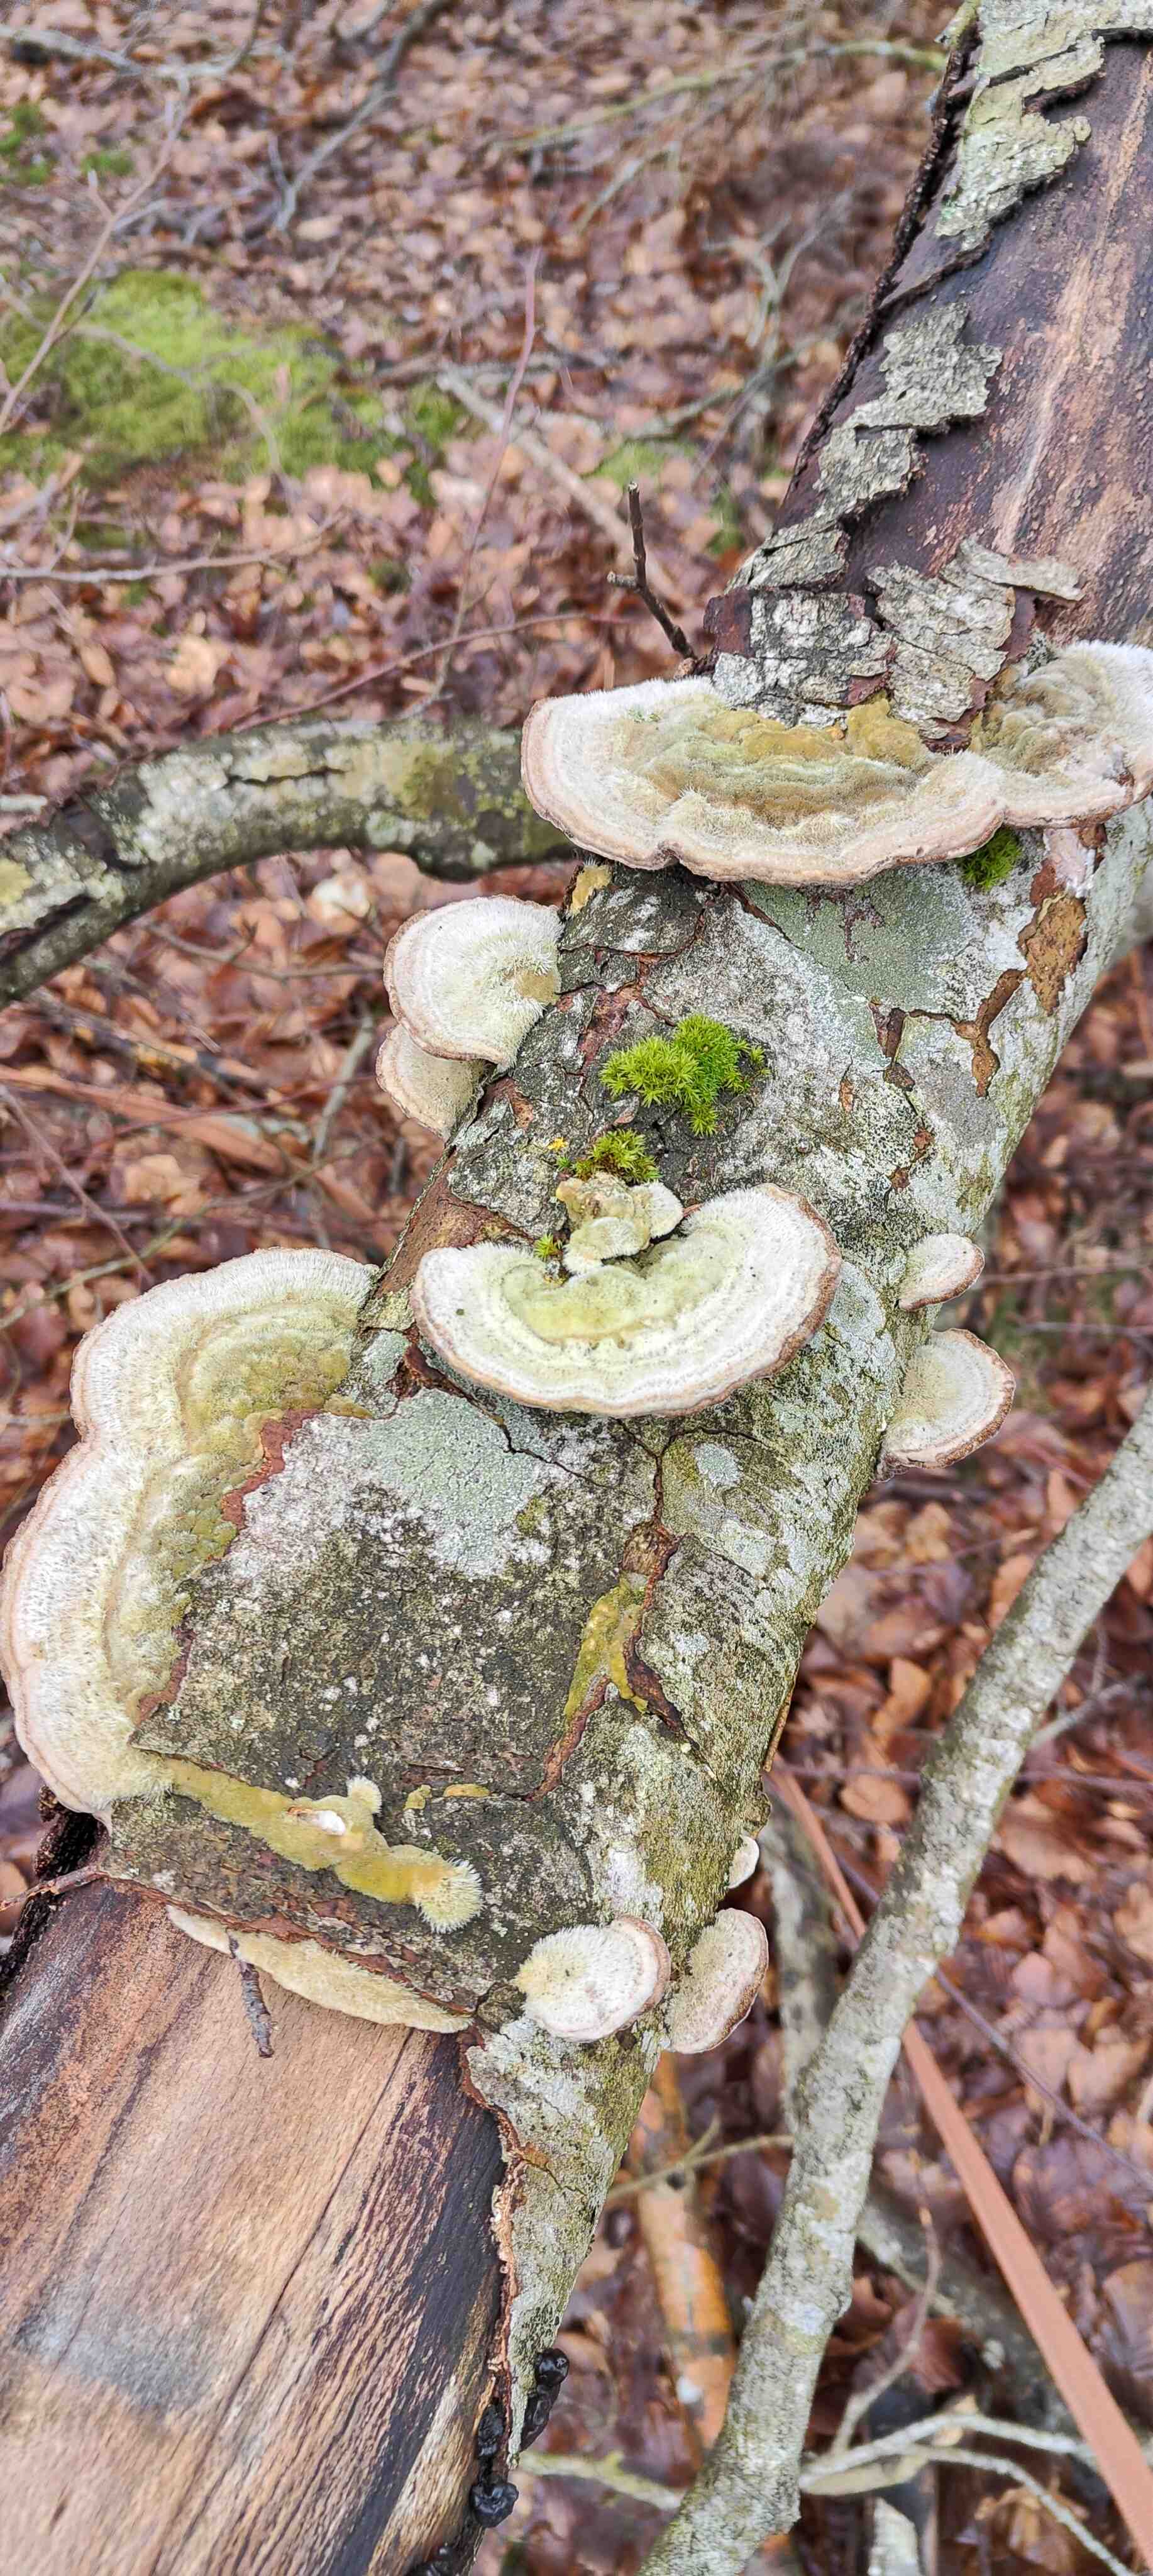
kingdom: Fungi
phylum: Basidiomycota
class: Agaricomycetes
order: Polyporales
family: Polyporaceae
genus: Trametes
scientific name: Trametes hirsuta
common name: håret læderporesvamp
